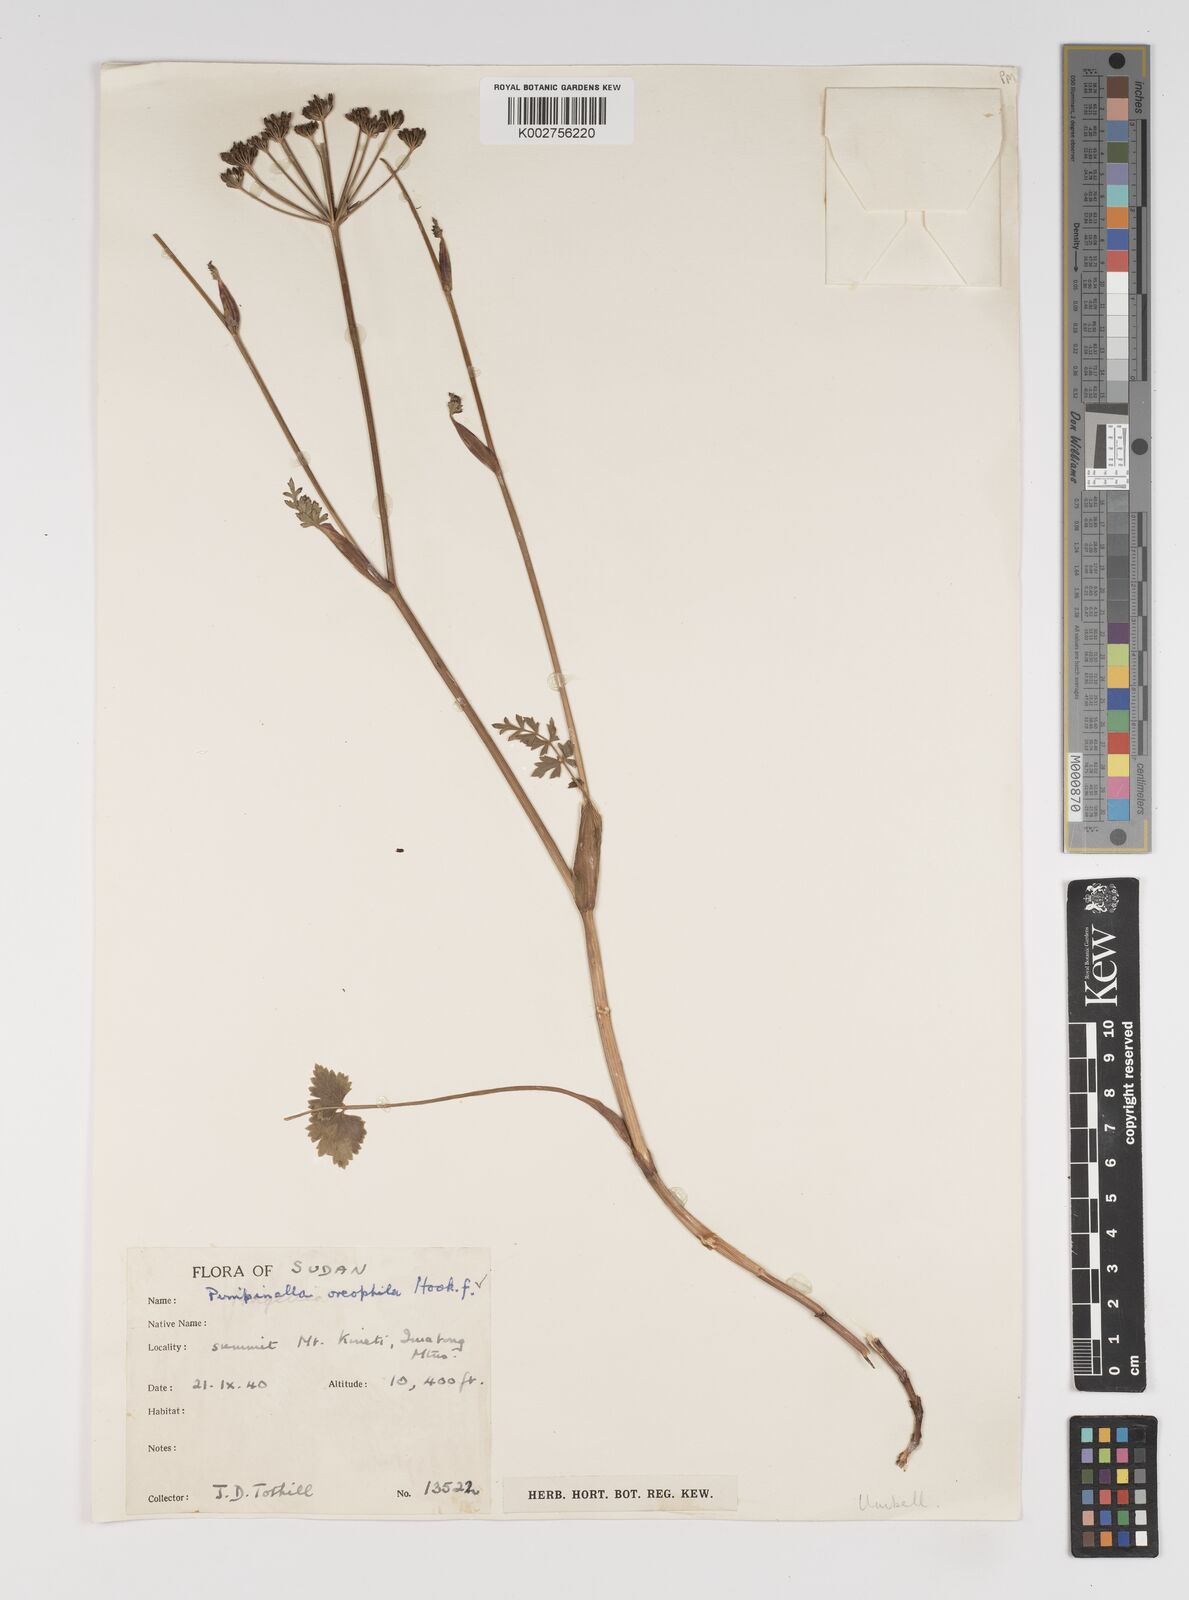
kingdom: Plantae
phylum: Tracheophyta
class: Magnoliopsida
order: Apiales
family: Apiaceae
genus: Pimpinella
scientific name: Pimpinella oreophila
